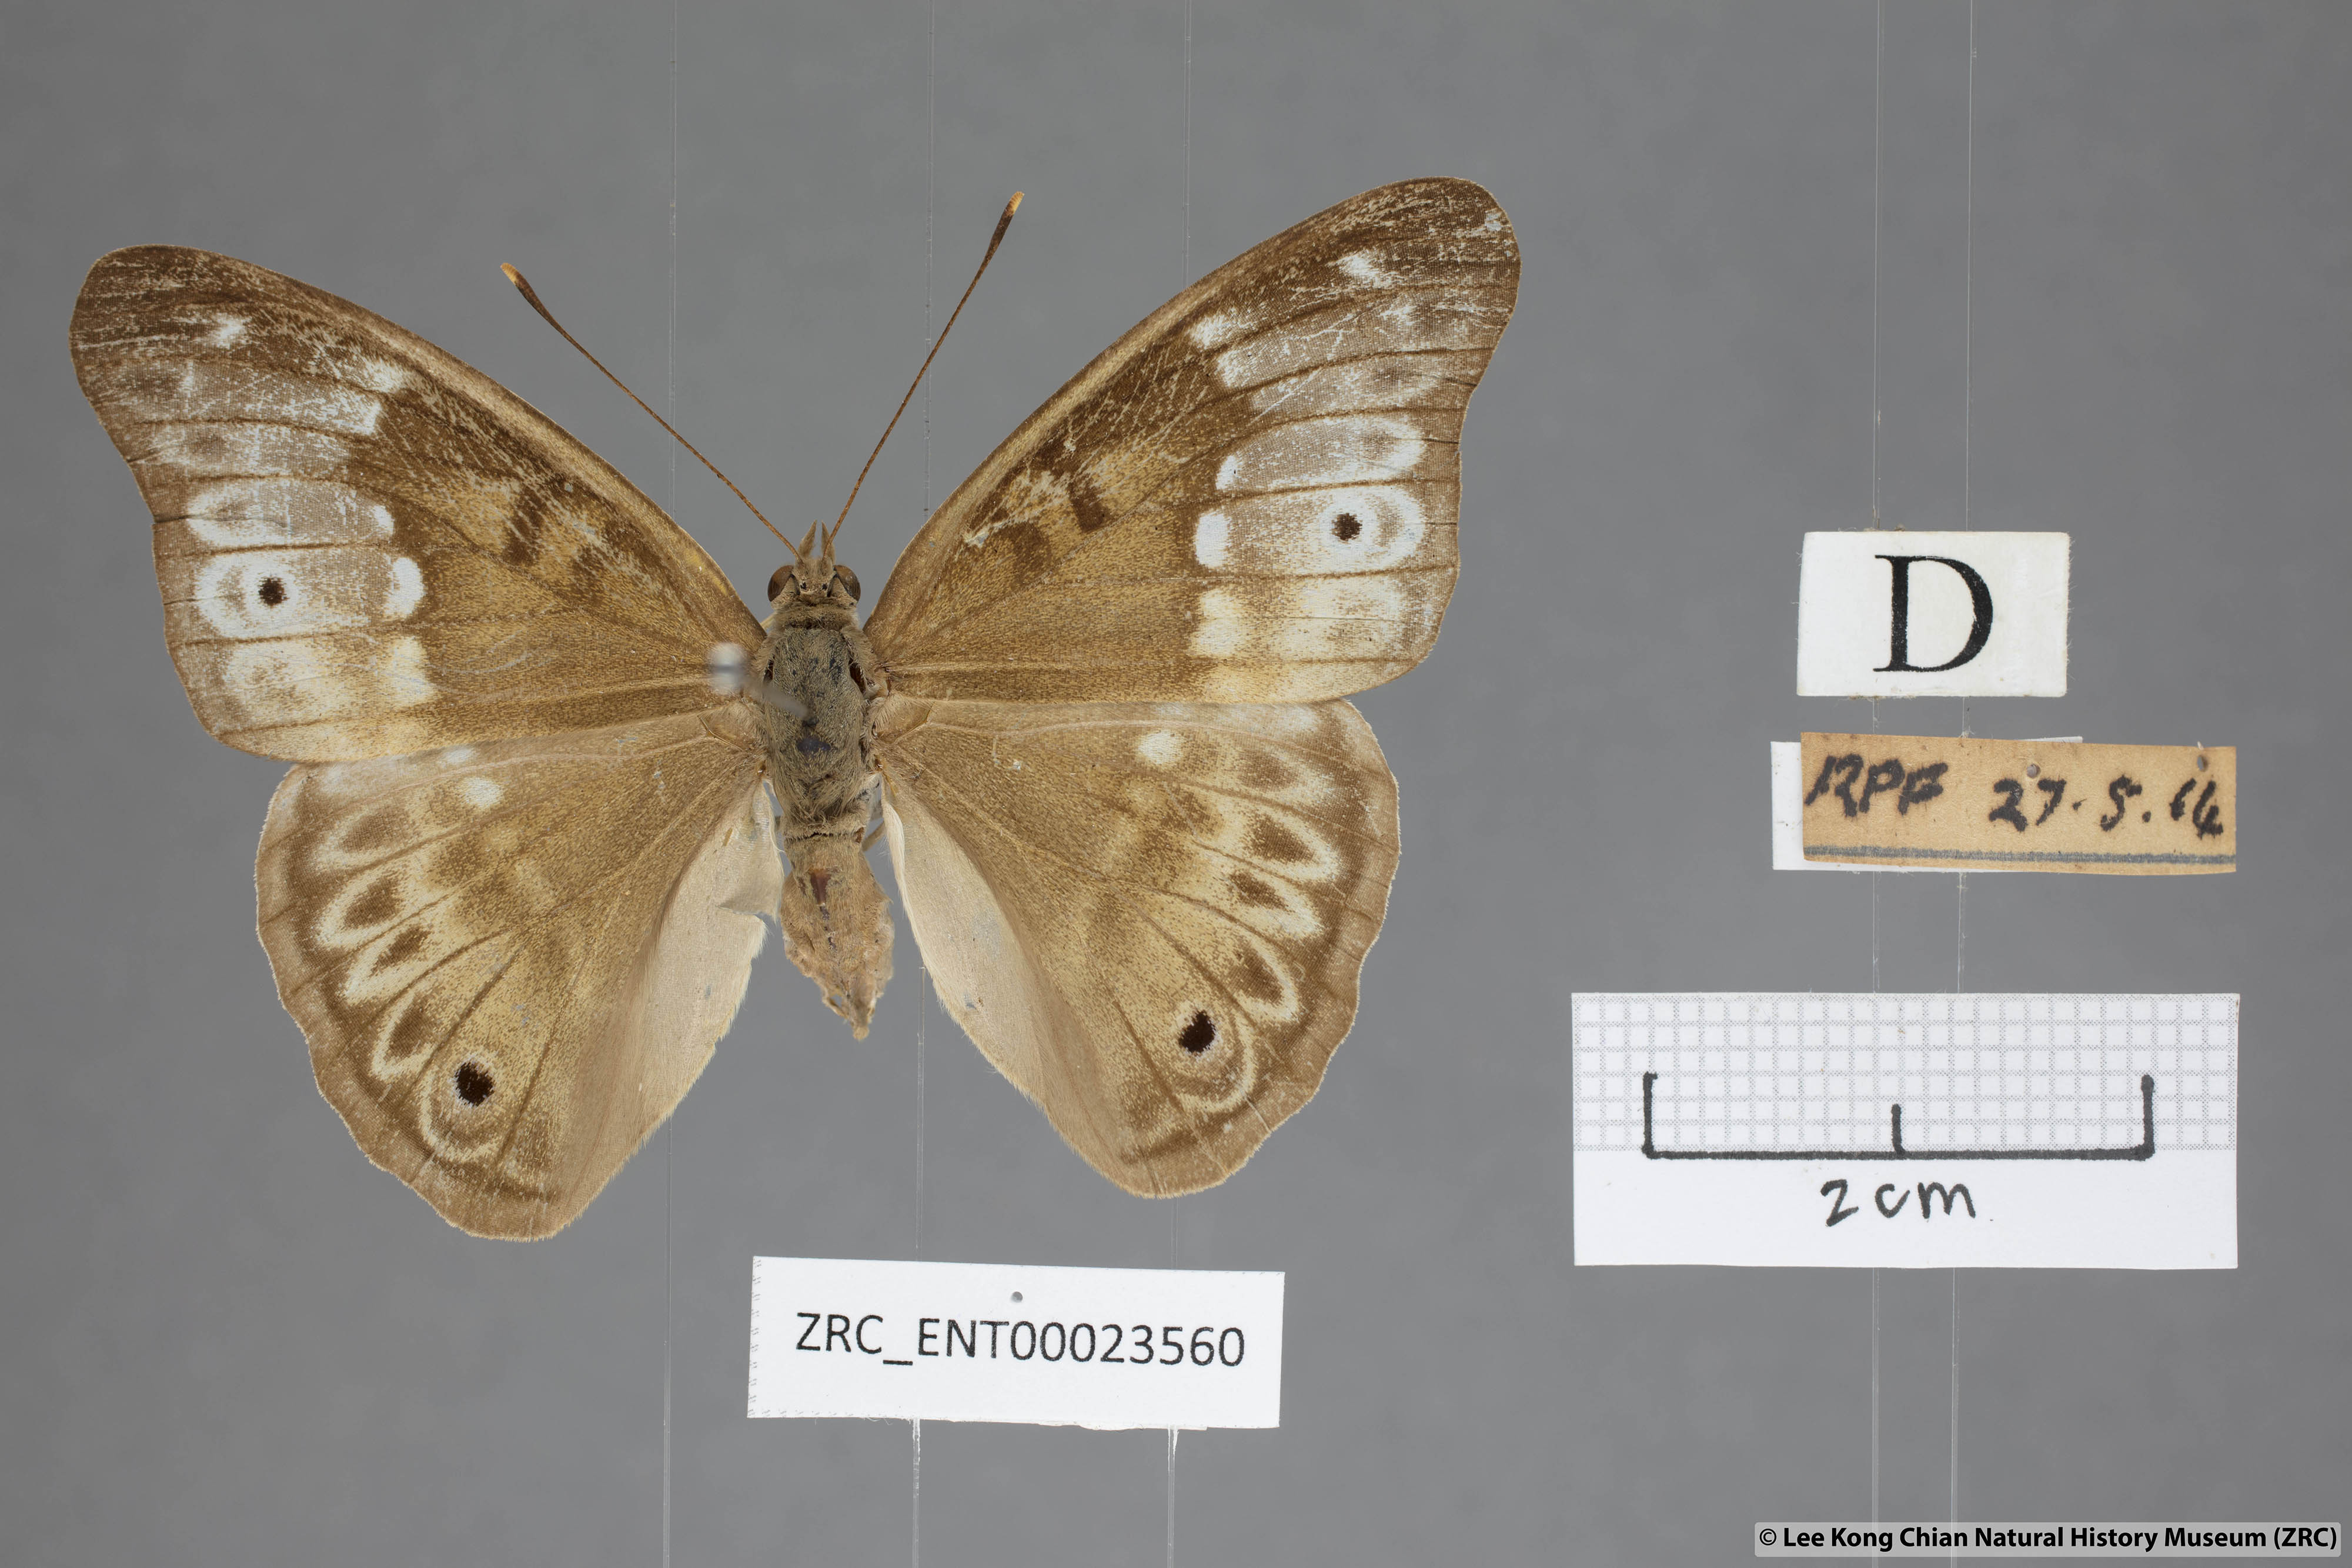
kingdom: Animalia
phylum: Arthropoda
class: Insecta
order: Lepidoptera
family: Nymphalidae
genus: Eulaceura
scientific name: Eulaceura osteria
